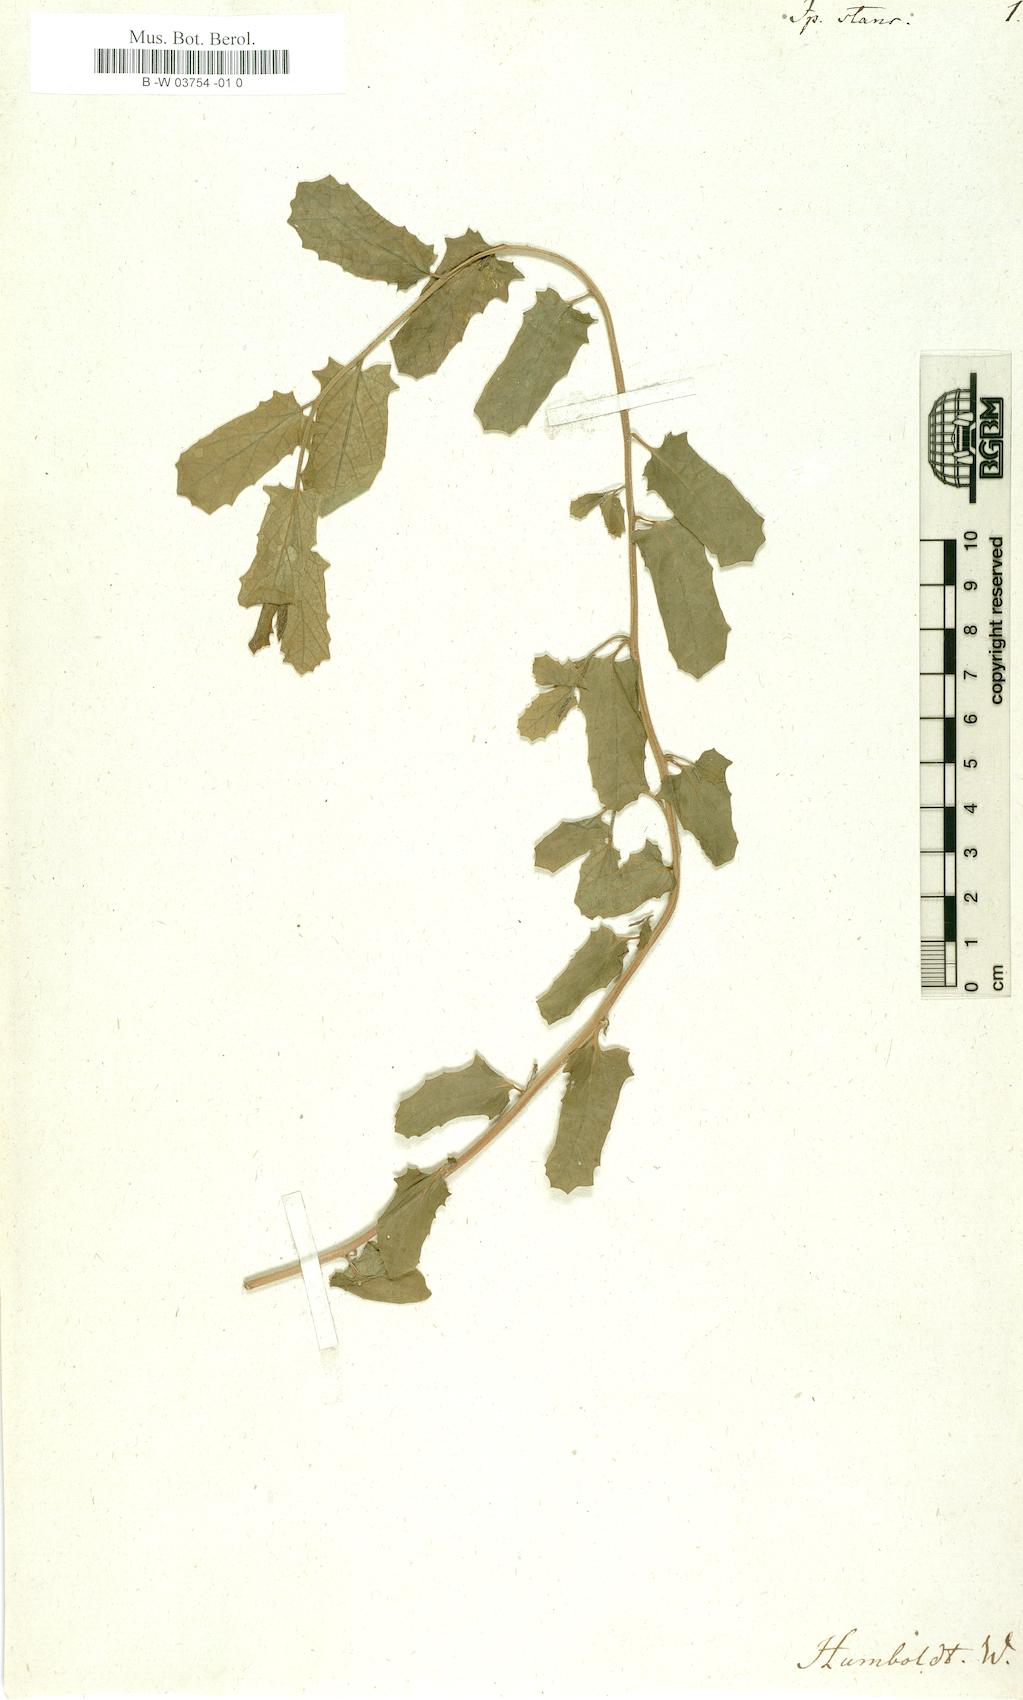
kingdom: Plantae
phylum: Tracheophyta
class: Magnoliopsida
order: Solanales
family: Convolvulaceae
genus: Ipomoea
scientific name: Ipomoea stans
